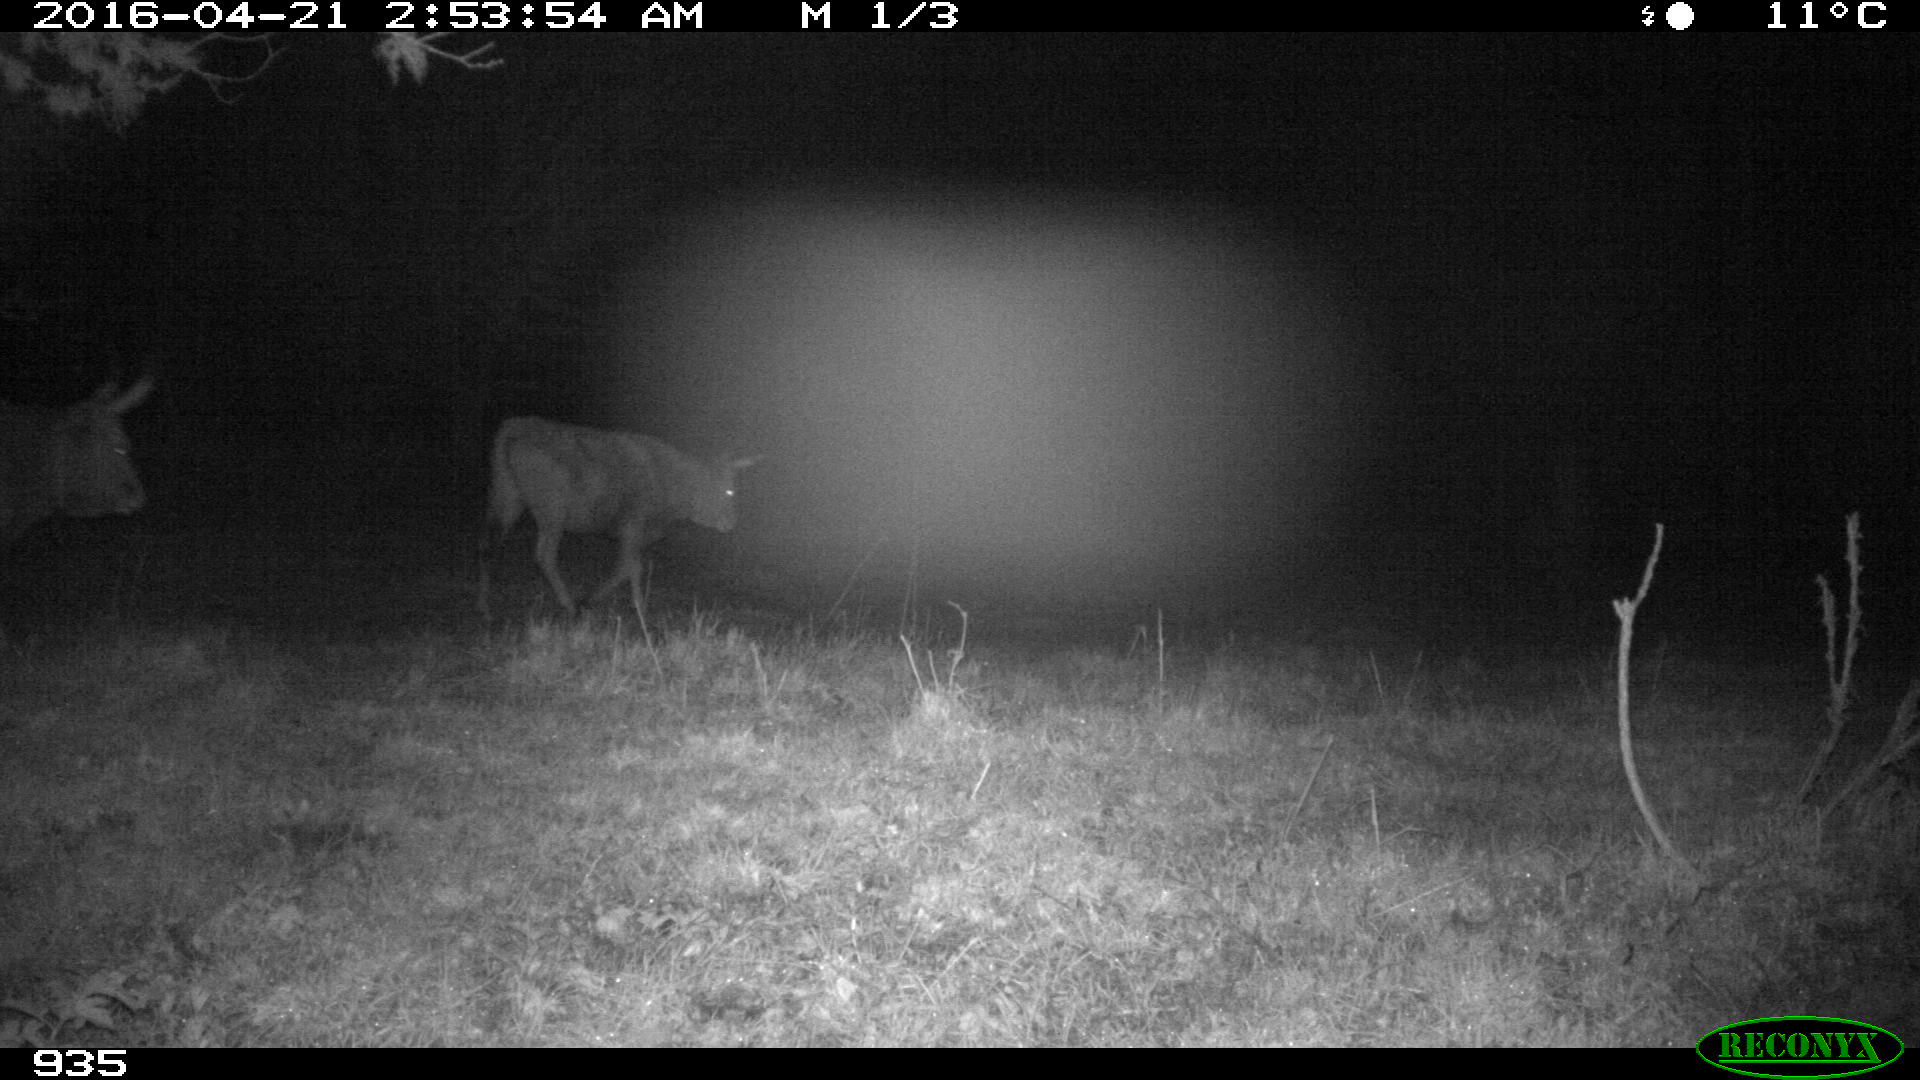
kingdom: Animalia
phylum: Chordata
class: Mammalia
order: Artiodactyla
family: Bovidae
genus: Bos
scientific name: Bos taurus
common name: Domesticated cattle
